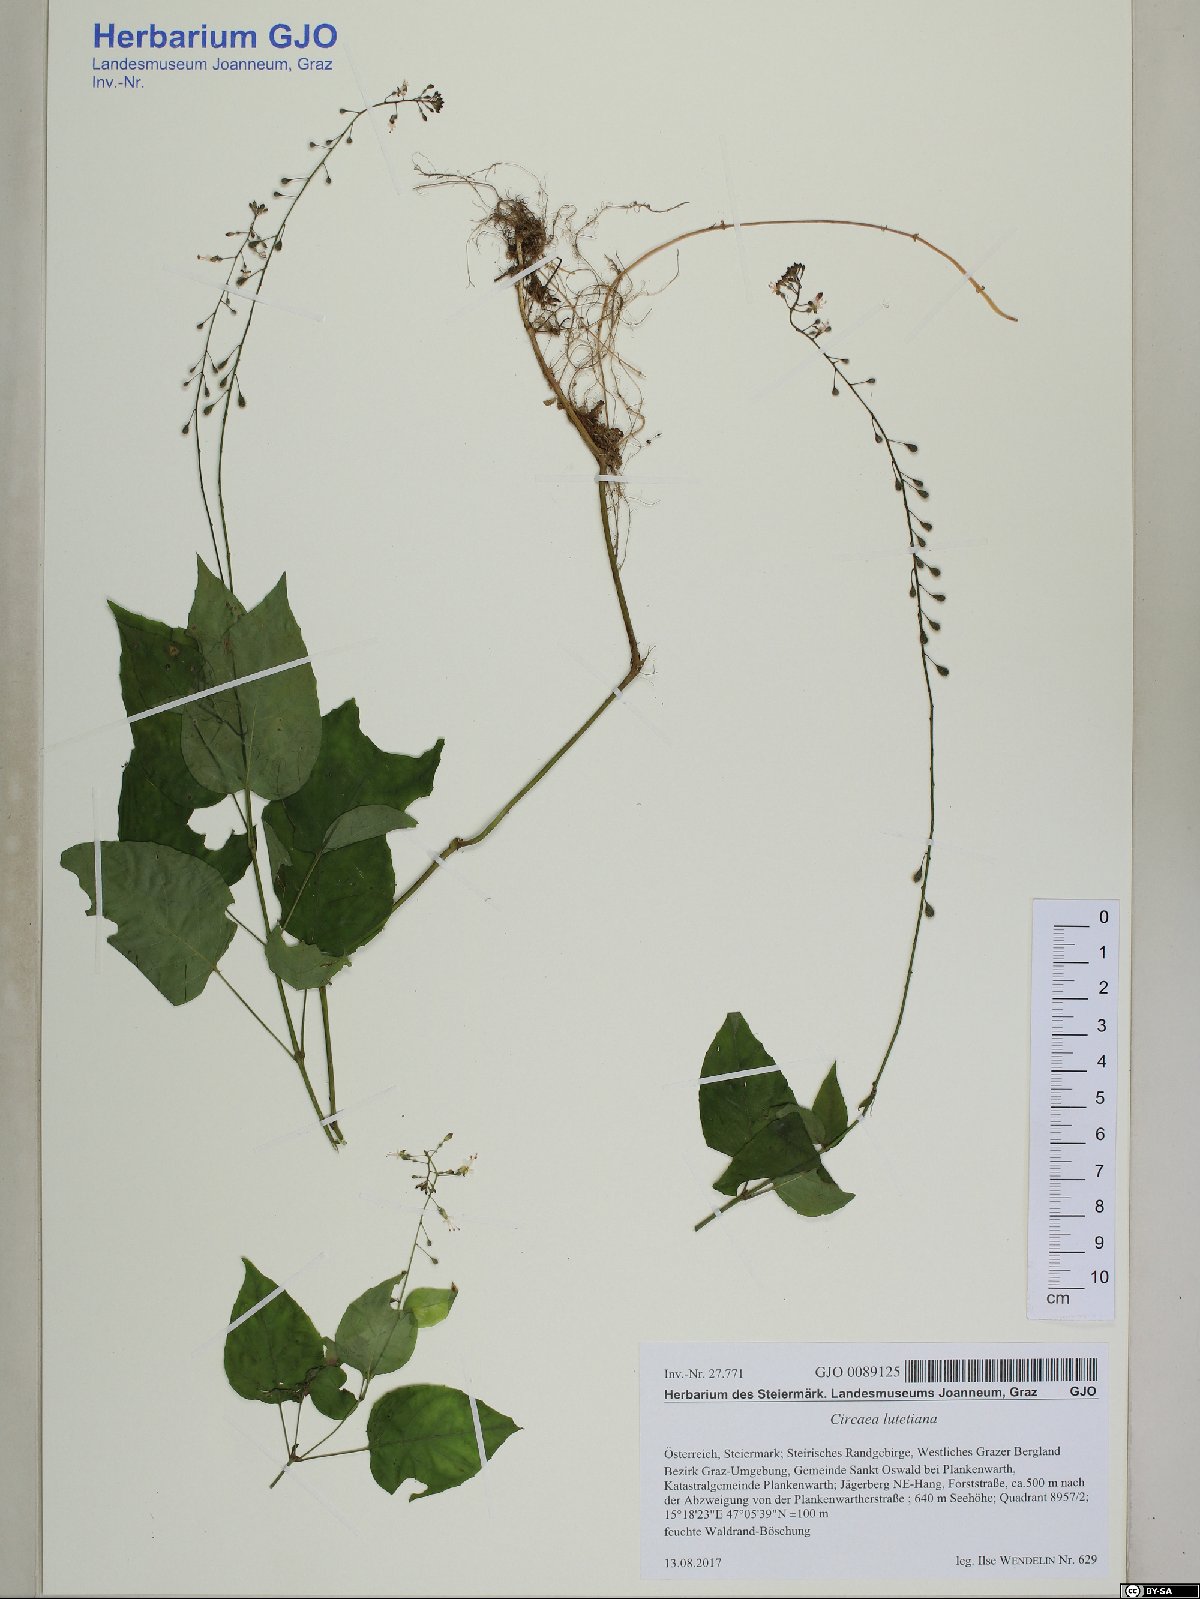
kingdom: Plantae
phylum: Tracheophyta
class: Magnoliopsida
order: Myrtales
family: Onagraceae
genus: Circaea
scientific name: Circaea lutetiana
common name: Enchanter's-nightshade
